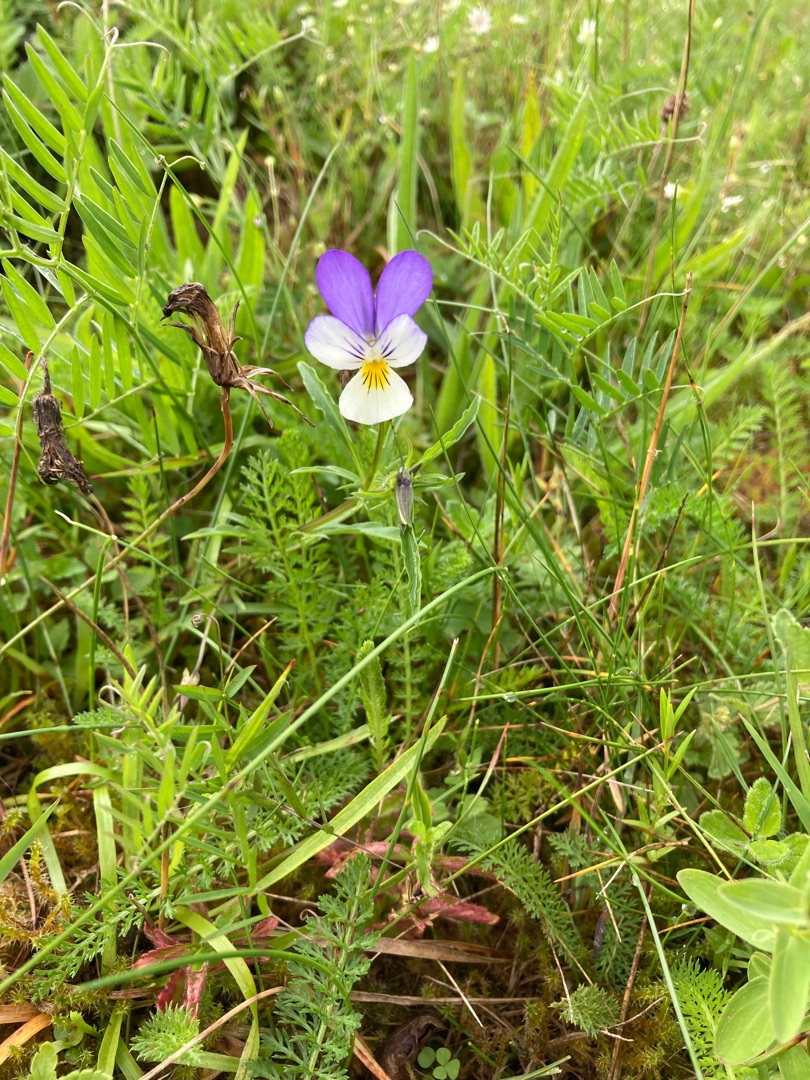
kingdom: Plantae
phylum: Tracheophyta
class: Magnoliopsida
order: Malpighiales
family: Violaceae
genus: Viola
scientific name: Viola tricolor
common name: Stedmoderblomst
